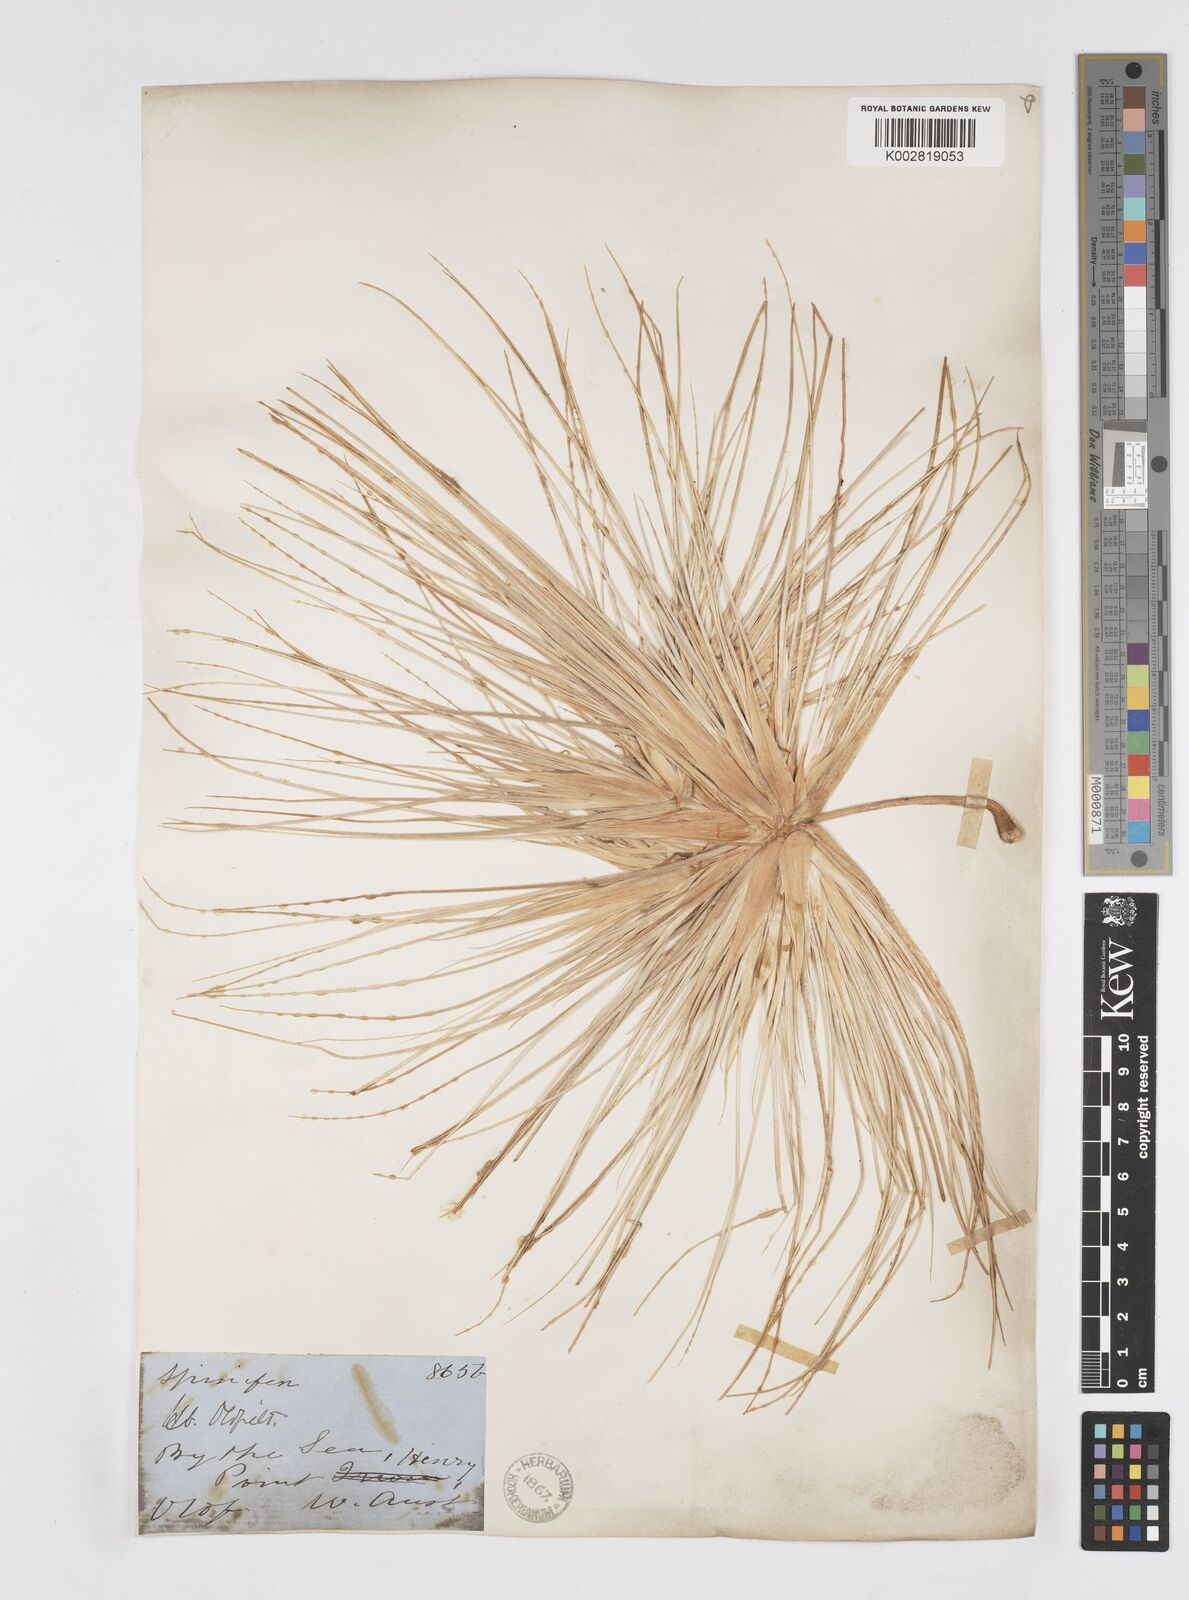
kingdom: Plantae
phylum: Tracheophyta
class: Liliopsida
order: Poales
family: Poaceae
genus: Spinifex
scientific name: Spinifex hirsutus
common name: Hairy spinifex
